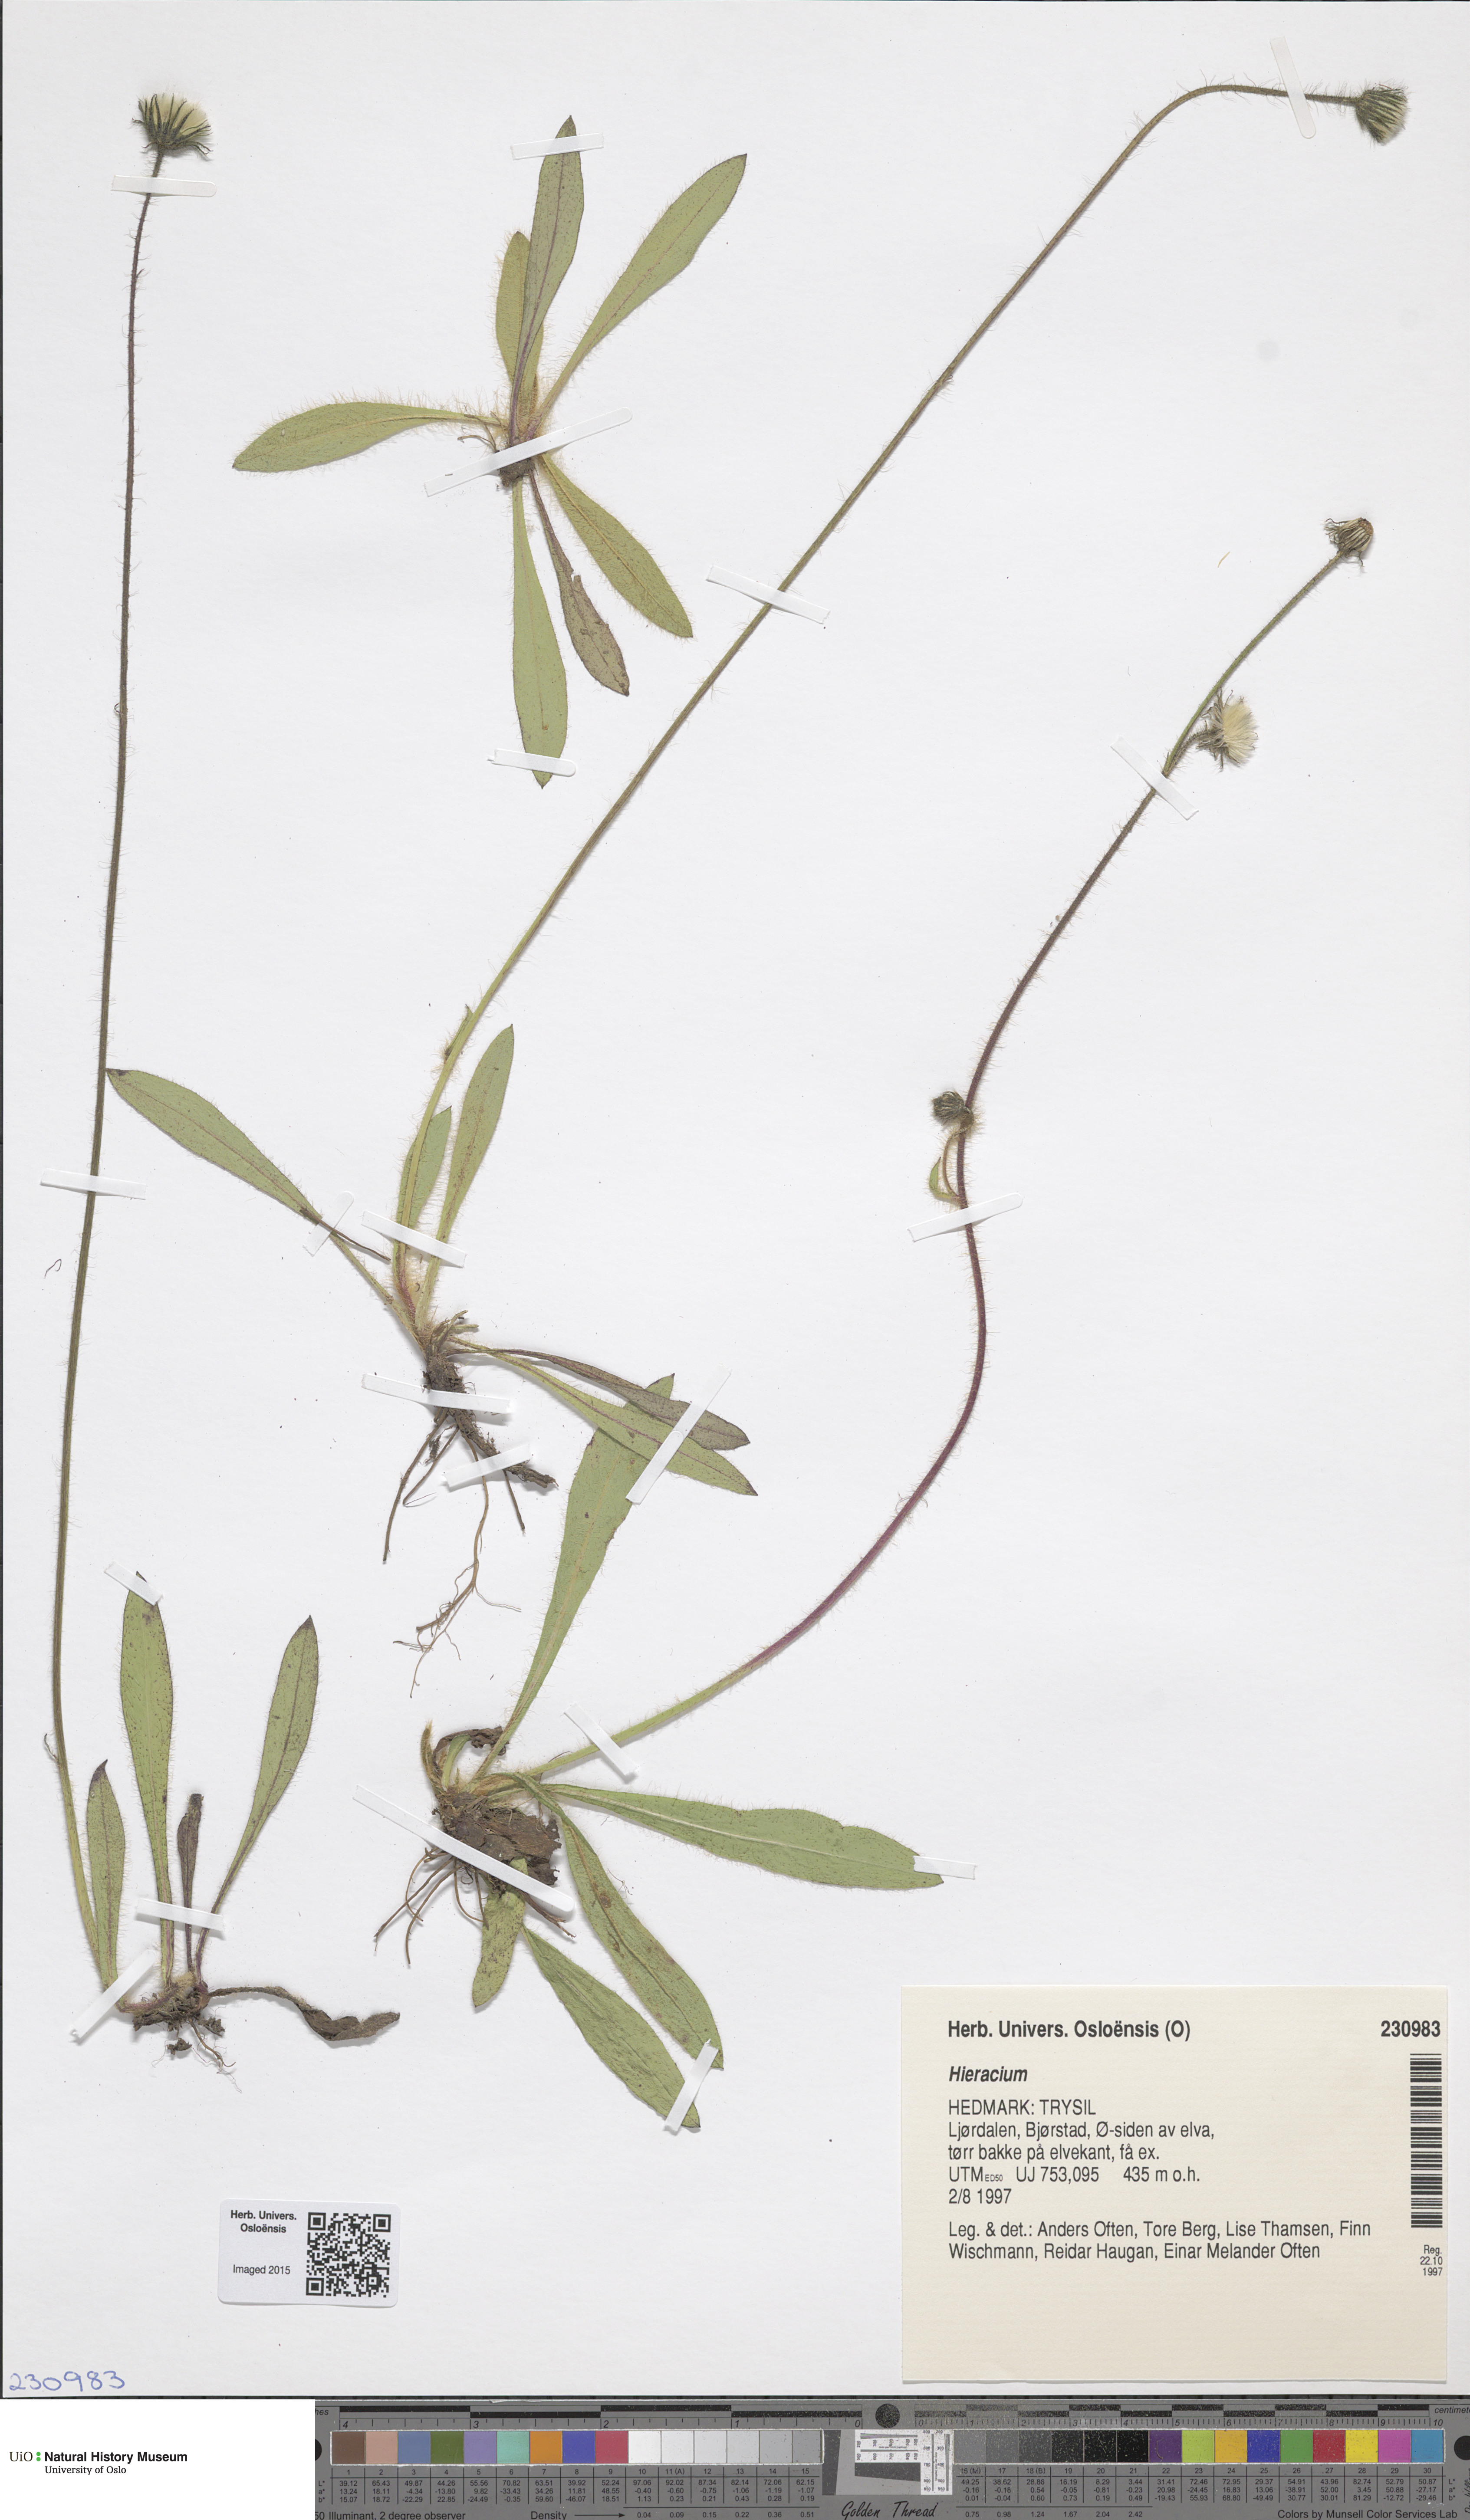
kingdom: Plantae
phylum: Tracheophyta
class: Magnoliopsida
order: Asterales
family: Asteraceae
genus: Hieracium
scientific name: Hieracium
